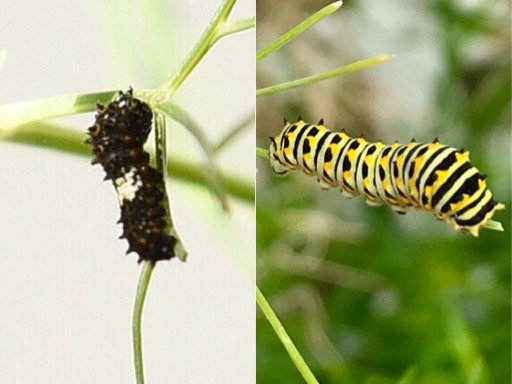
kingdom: Animalia
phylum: Arthropoda
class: Insecta
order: Lepidoptera
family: Papilionidae
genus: Papilio
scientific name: Papilio polyxenes
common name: Black Swallowtail
